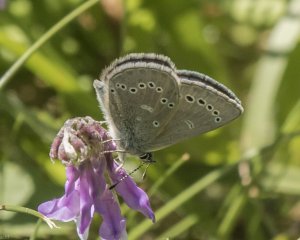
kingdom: Animalia
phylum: Arthropoda
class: Insecta
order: Lepidoptera
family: Lycaenidae
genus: Glaucopsyche
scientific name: Glaucopsyche lygdamus
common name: Silvery Blue
